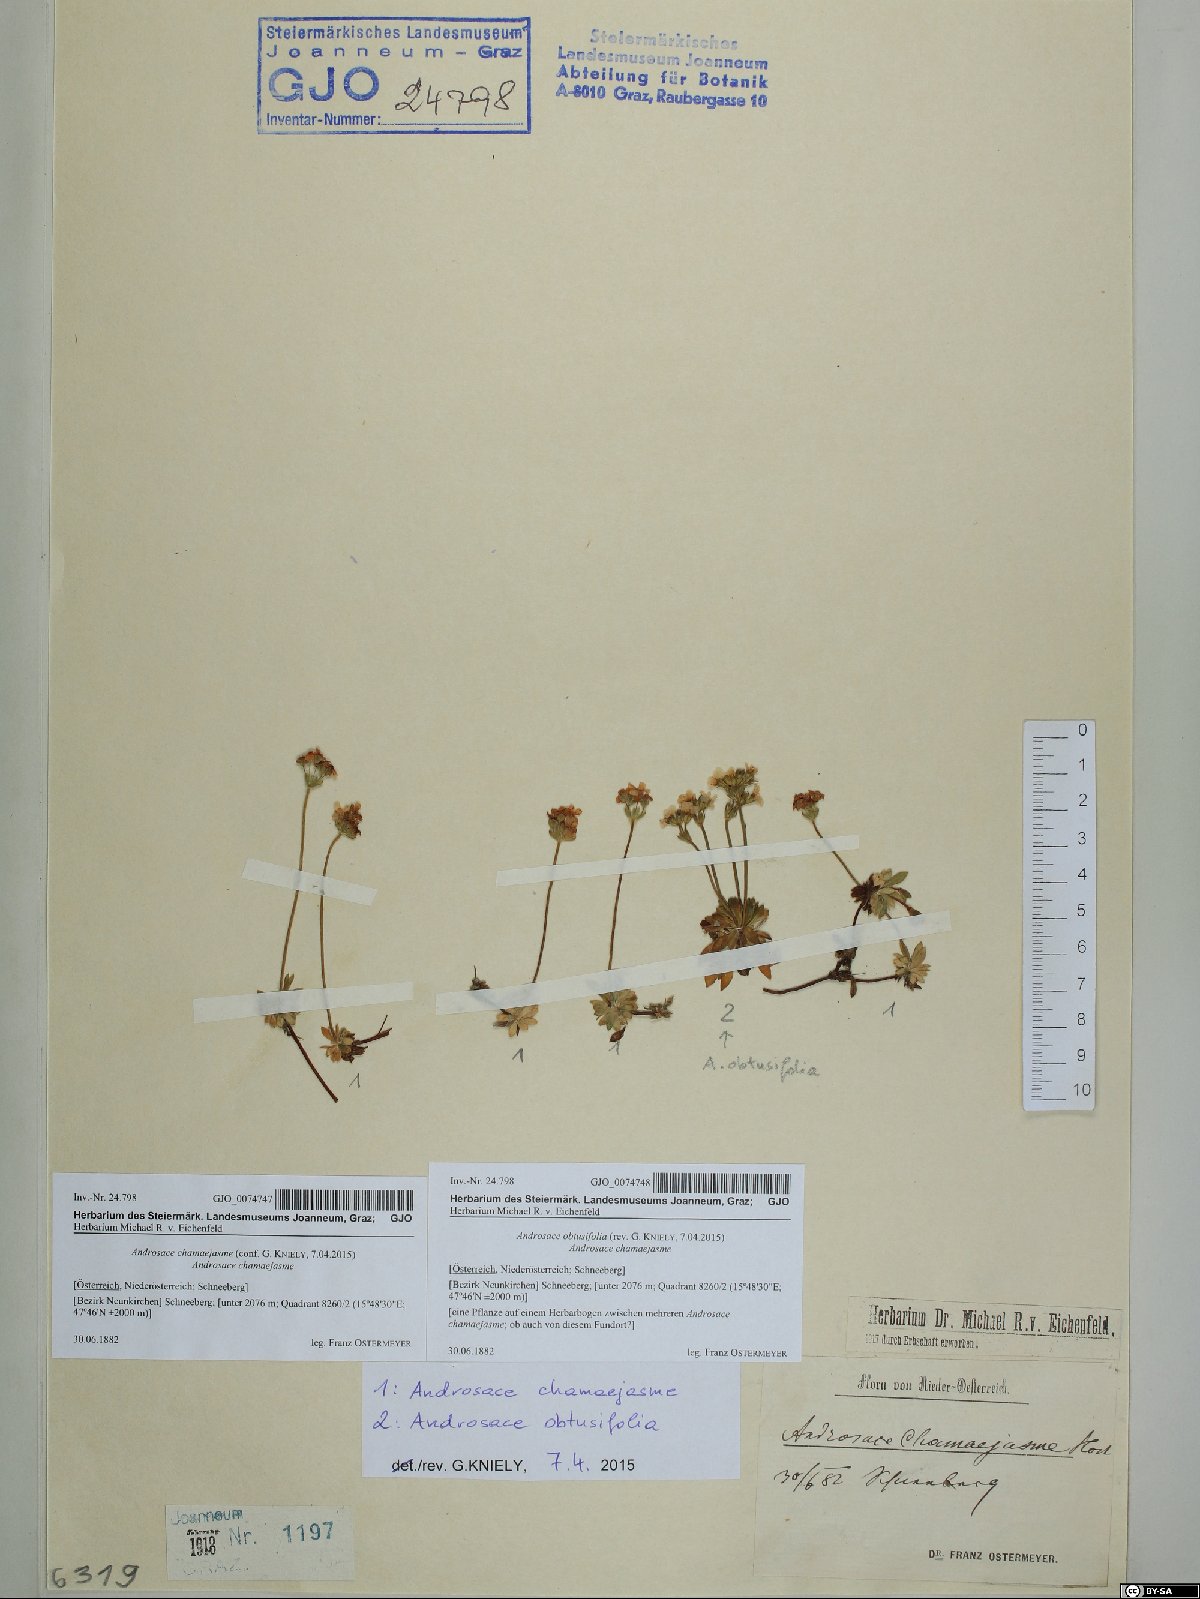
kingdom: Plantae
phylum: Tracheophyta
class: Magnoliopsida
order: Ericales
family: Primulaceae
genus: Androsace
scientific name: Androsace chamaejasme
